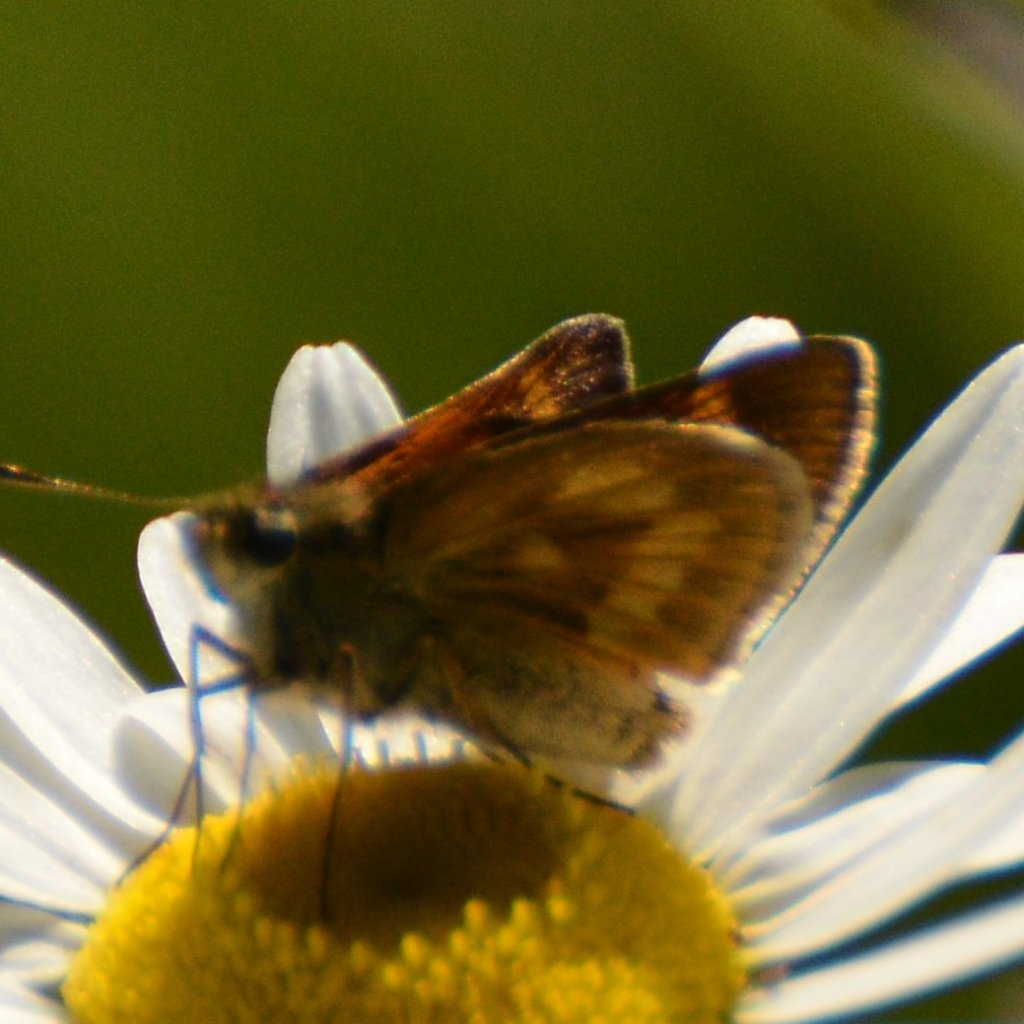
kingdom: Animalia
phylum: Arthropoda
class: Insecta
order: Lepidoptera
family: Hesperiidae
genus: Polites
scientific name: Polites themistocles
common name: Tawny-edged Skipper
